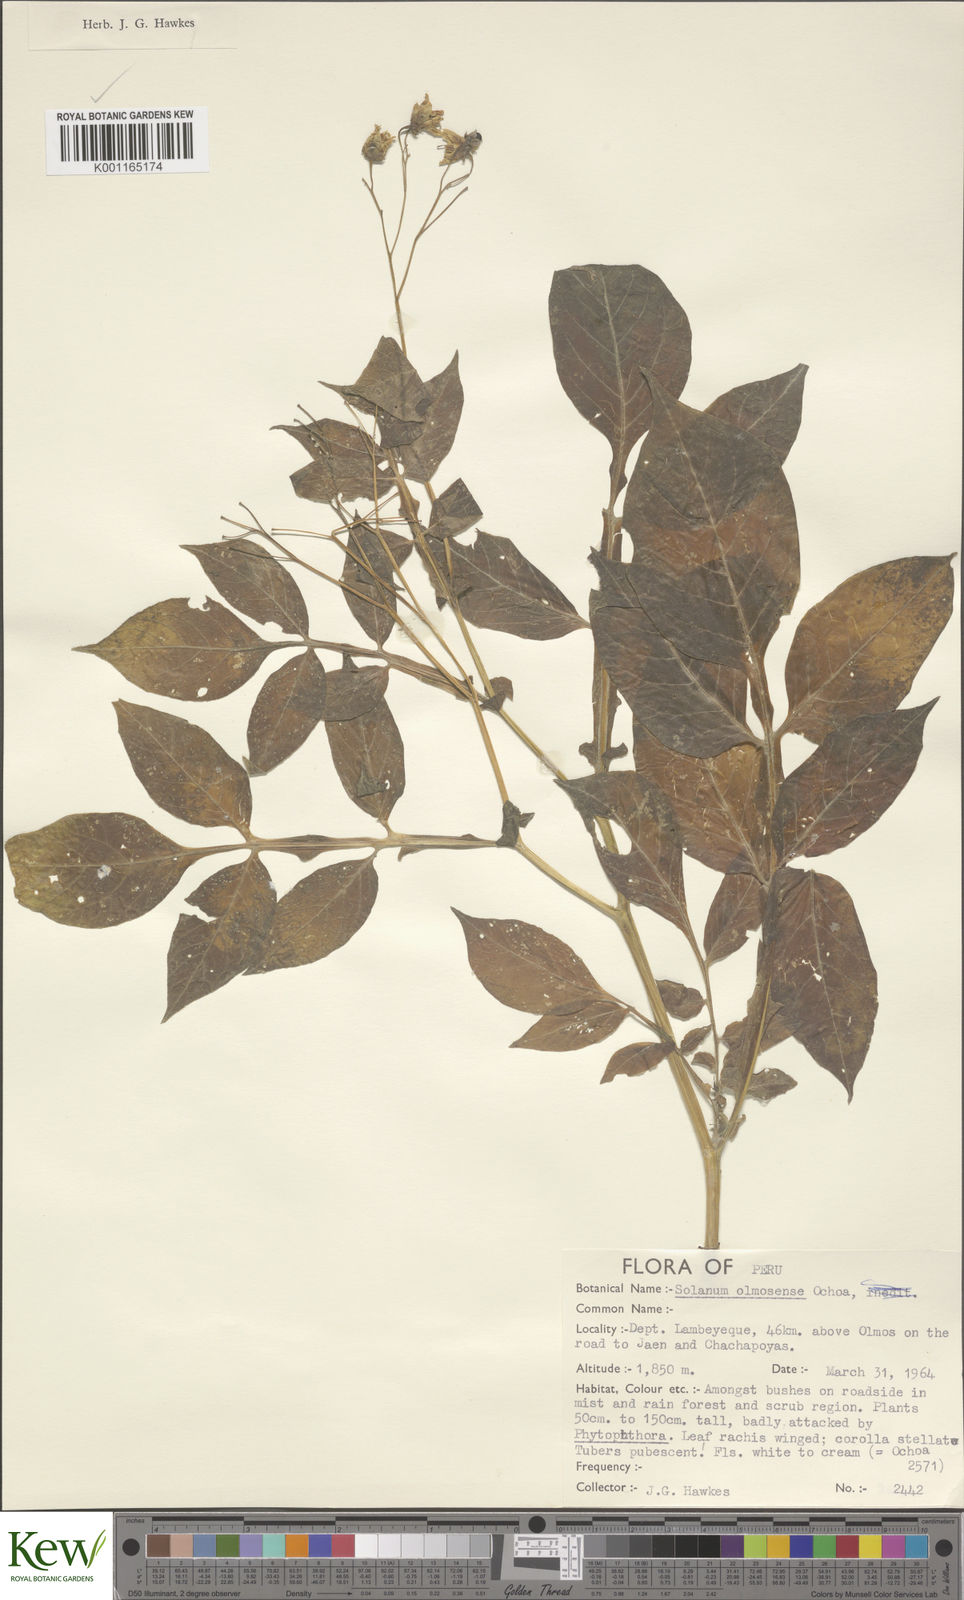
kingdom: Plantae
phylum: Tracheophyta
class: Magnoliopsida
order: Solanales
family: Solanaceae
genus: Solanum
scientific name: Solanum olmosense
